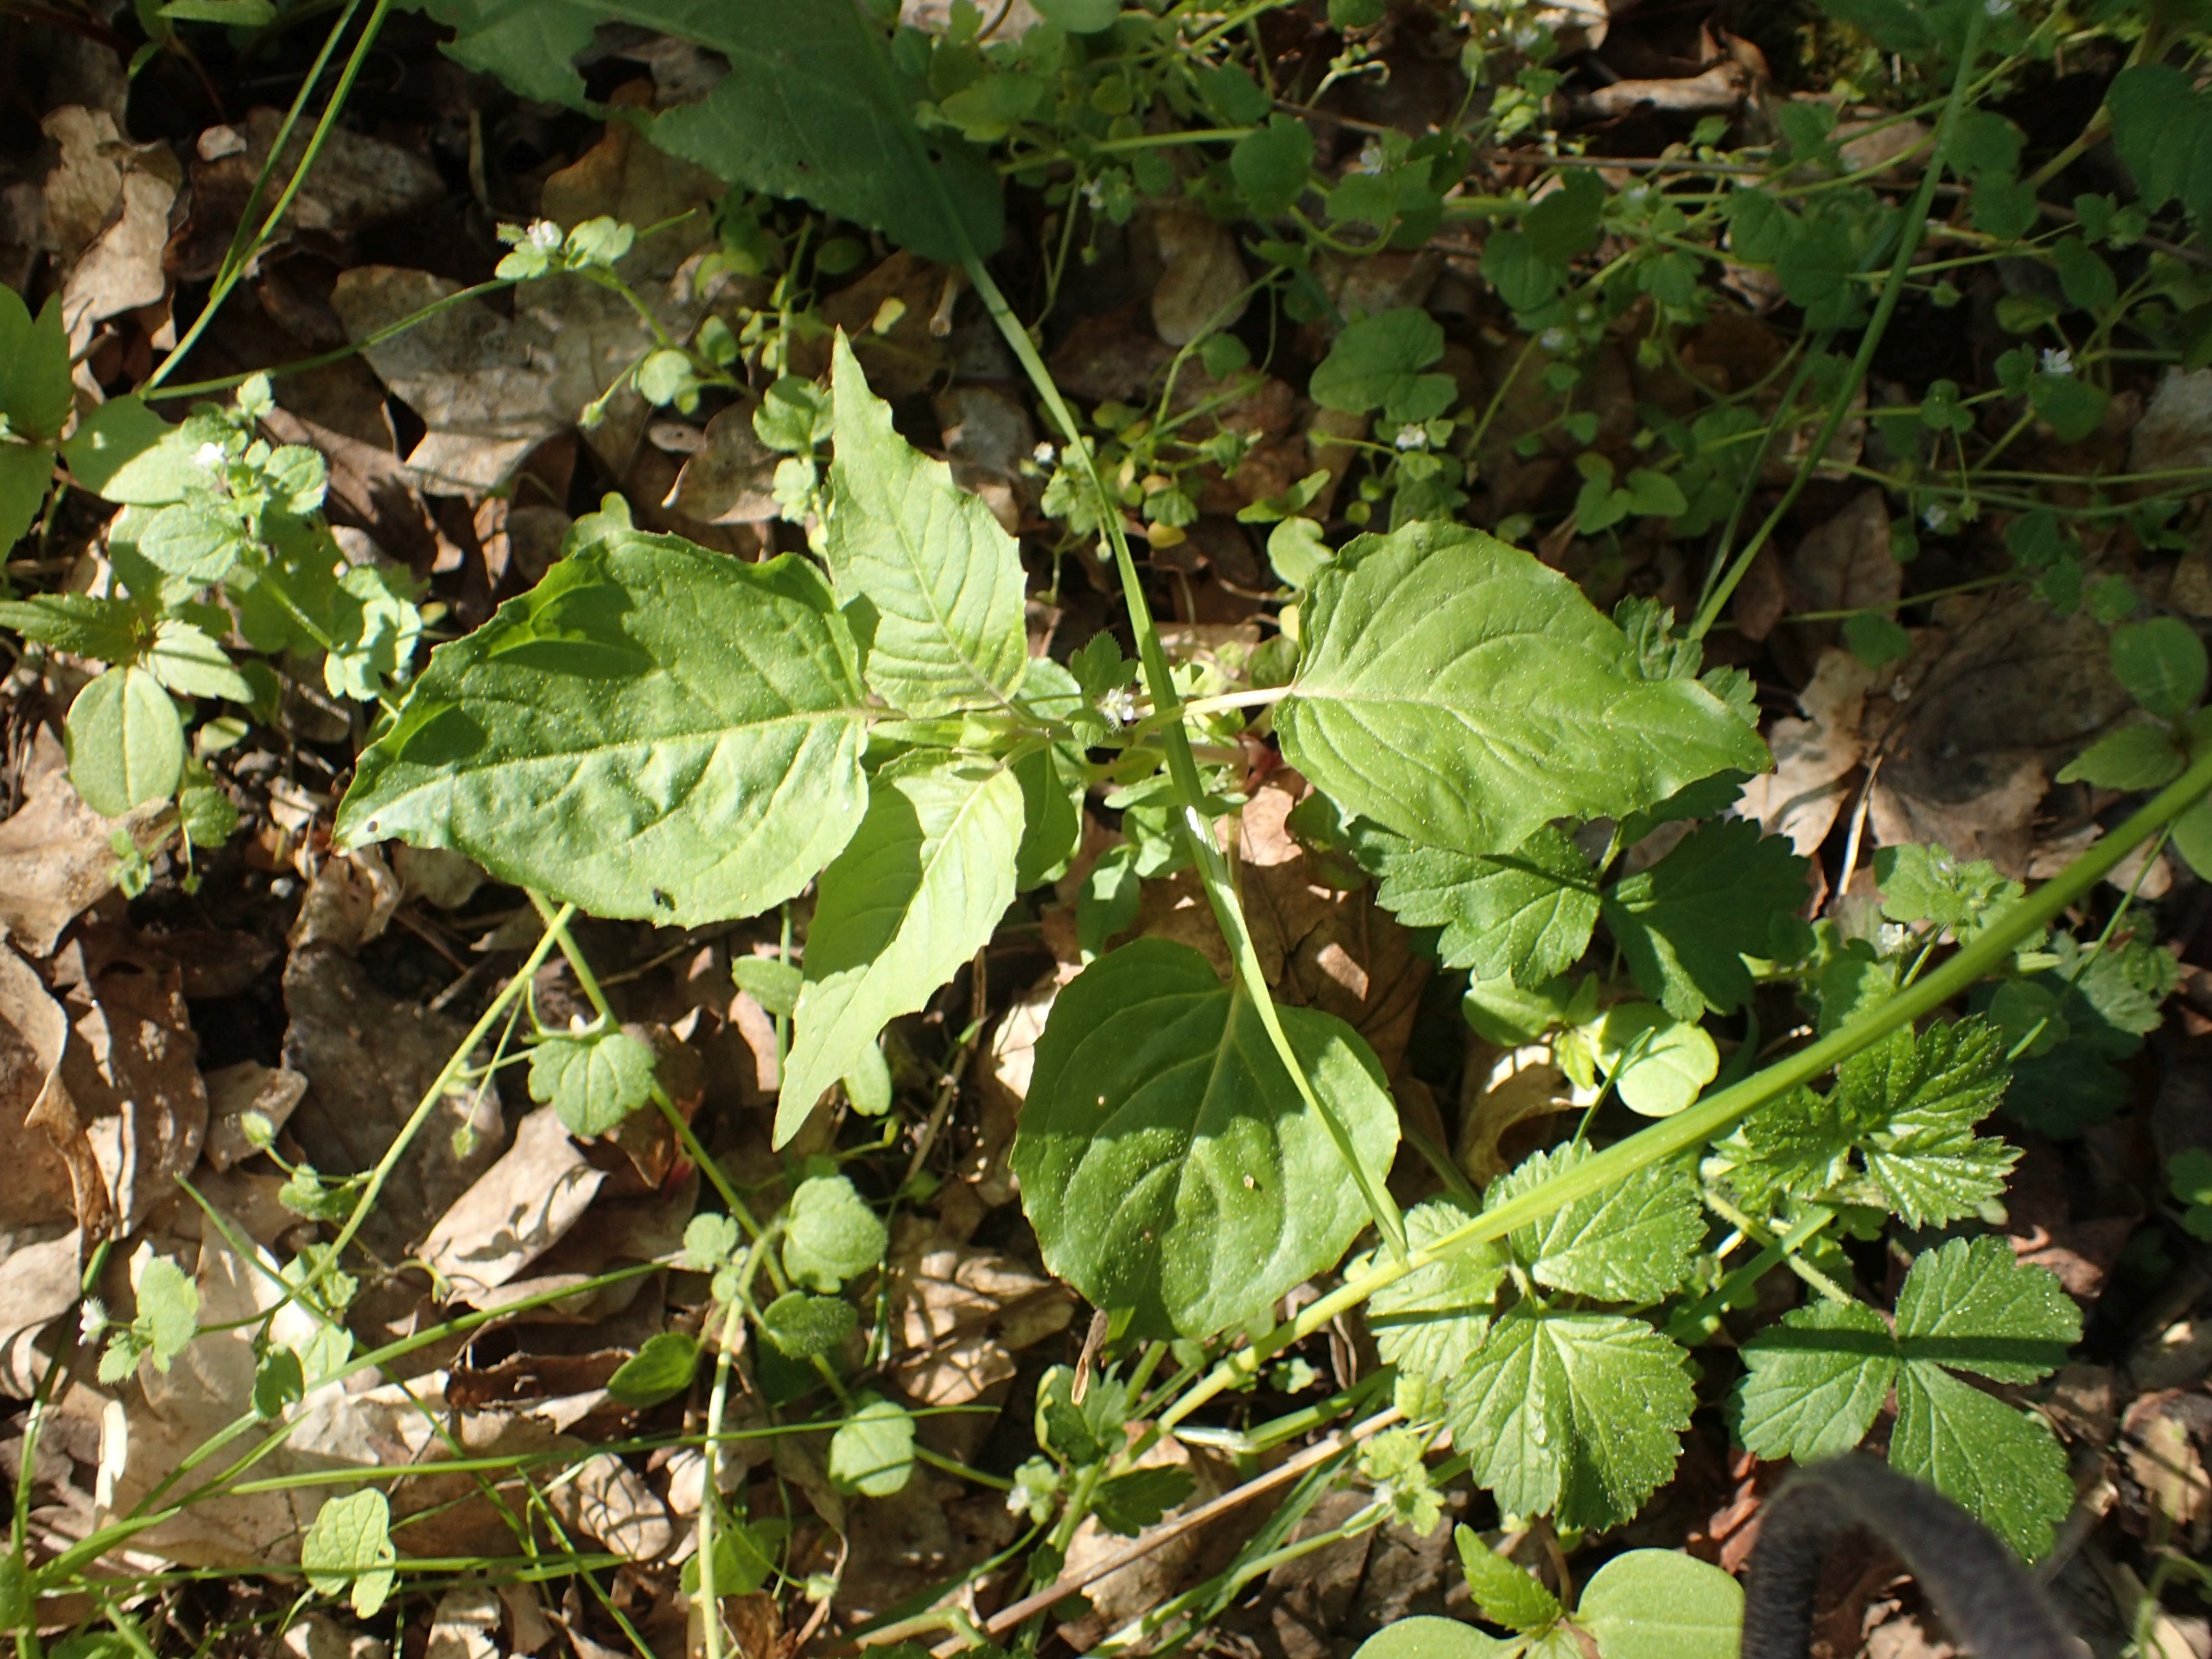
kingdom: Plantae
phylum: Tracheophyta
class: Magnoliopsida
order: Myrtales
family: Onagraceae
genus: Circaea
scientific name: Circaea lutetiana
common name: Dunet steffensurt
